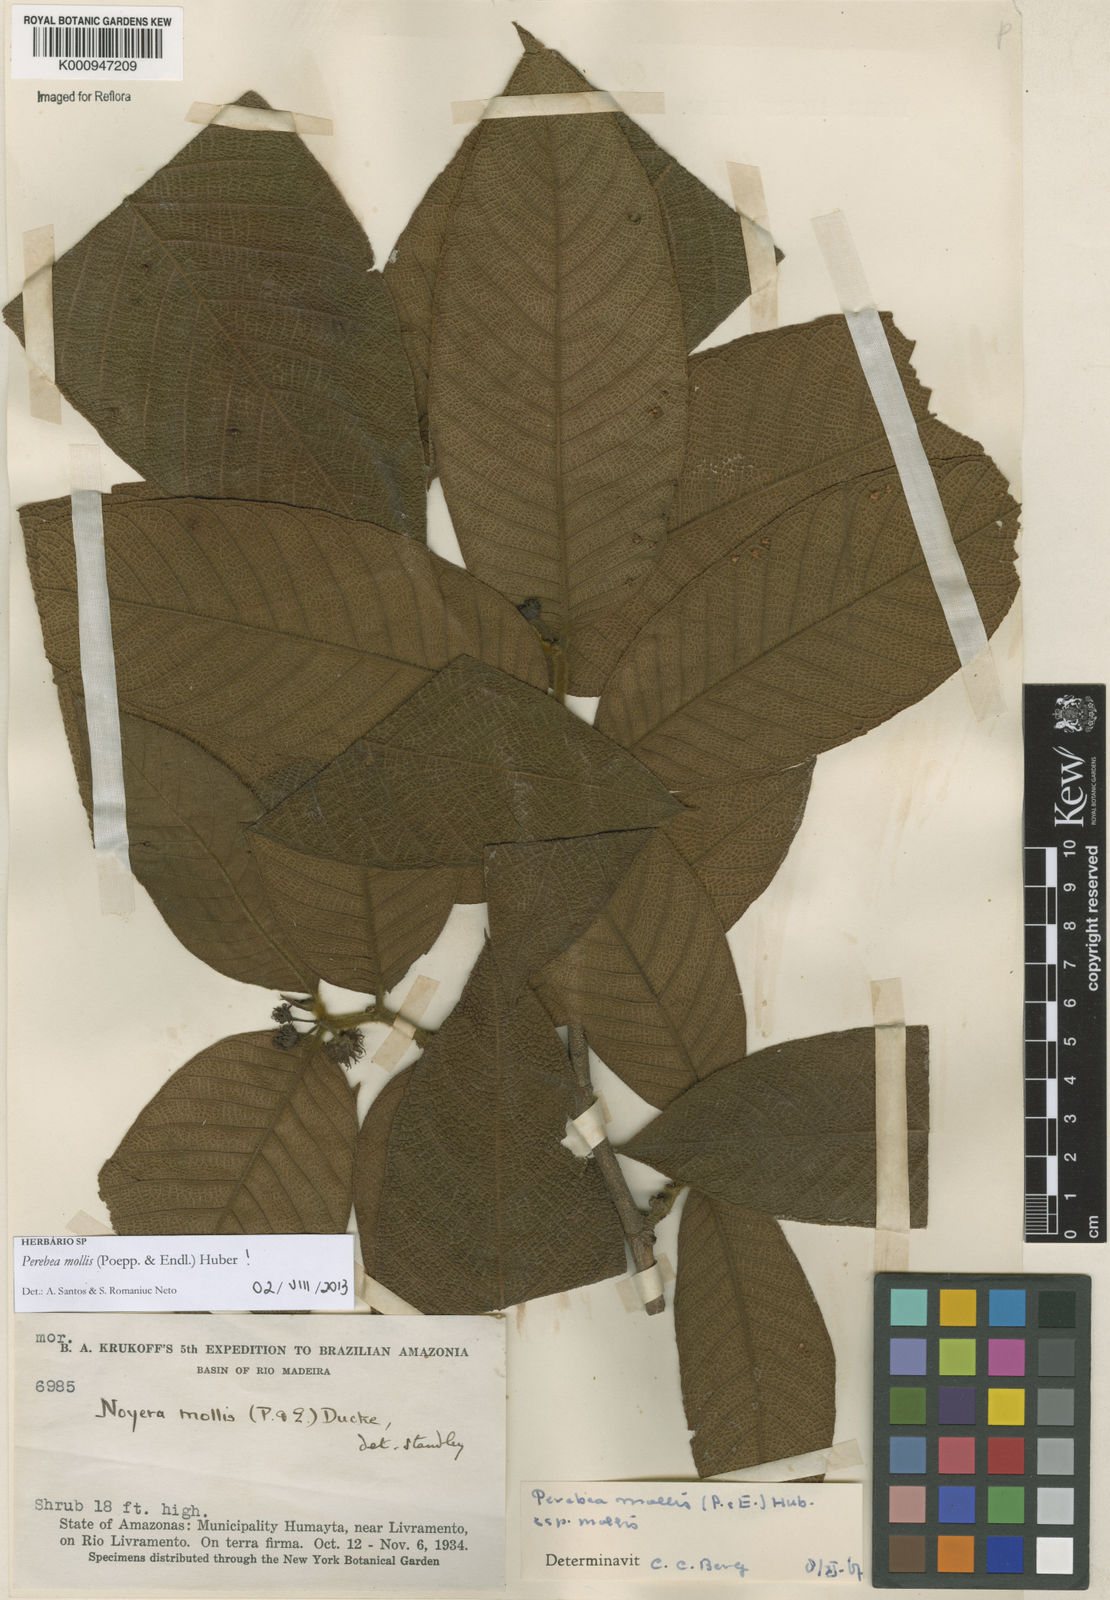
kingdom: Plantae
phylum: Tracheophyta
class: Magnoliopsida
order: Rosales
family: Moraceae
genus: Perebea
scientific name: Perebea mollis
